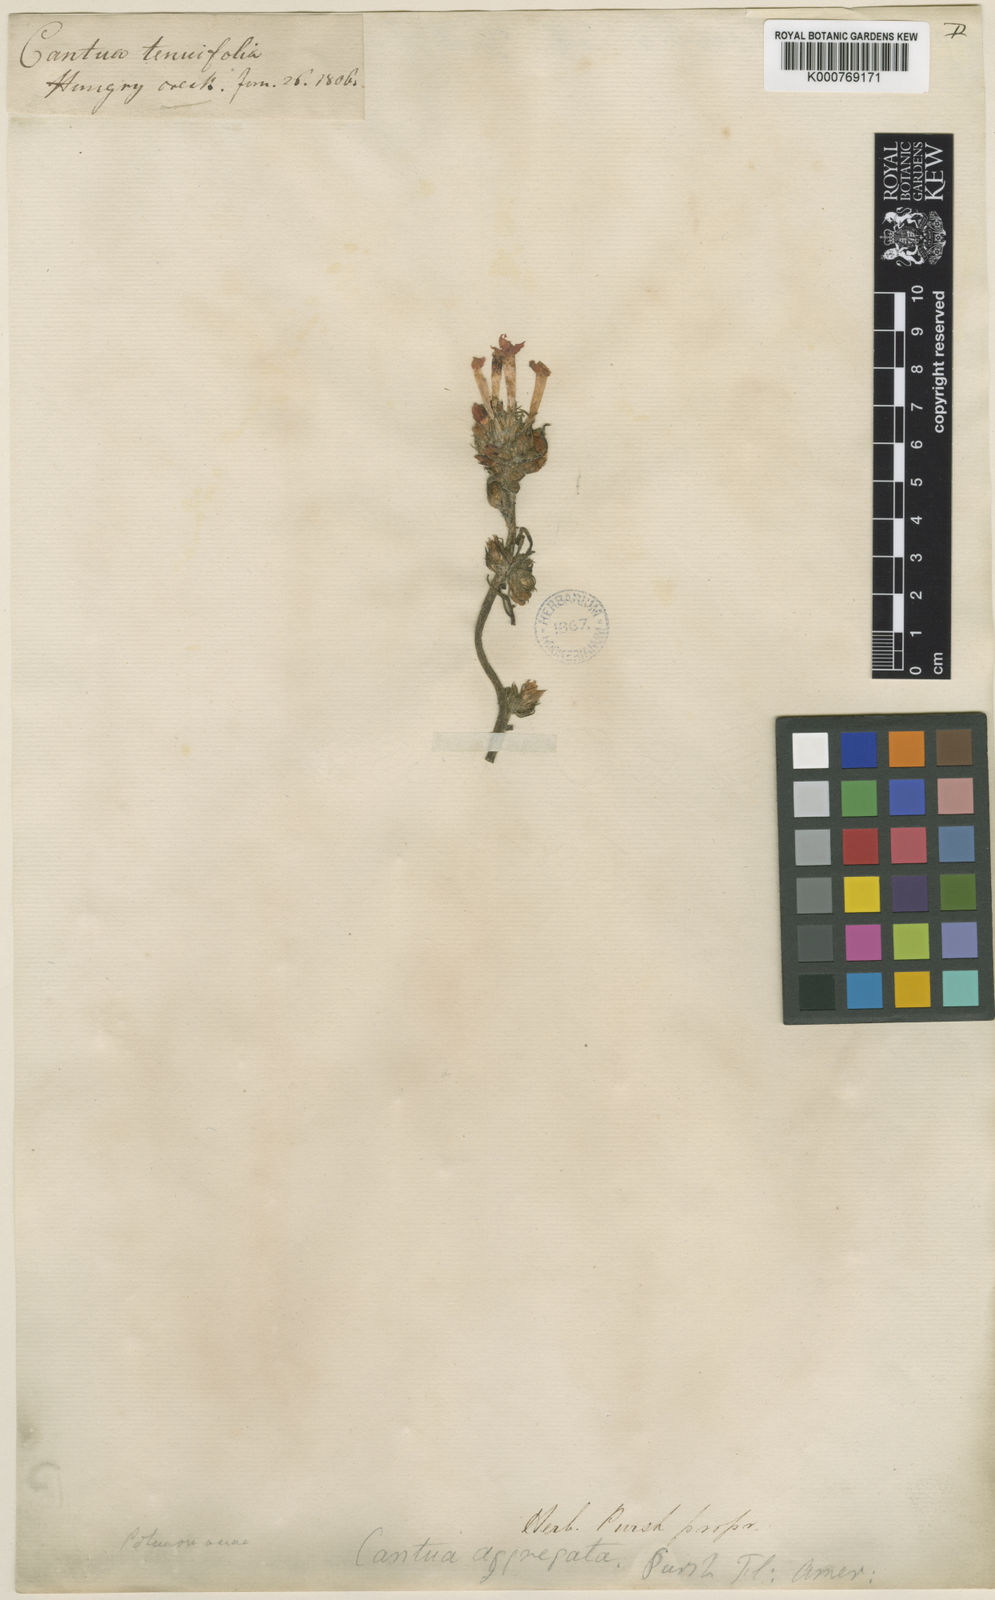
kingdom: Plantae
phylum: Tracheophyta
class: Magnoliopsida
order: Ericales
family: Polemoniaceae
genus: Ipomopsis
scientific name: Ipomopsis aggregata
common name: Scarlet gilia
